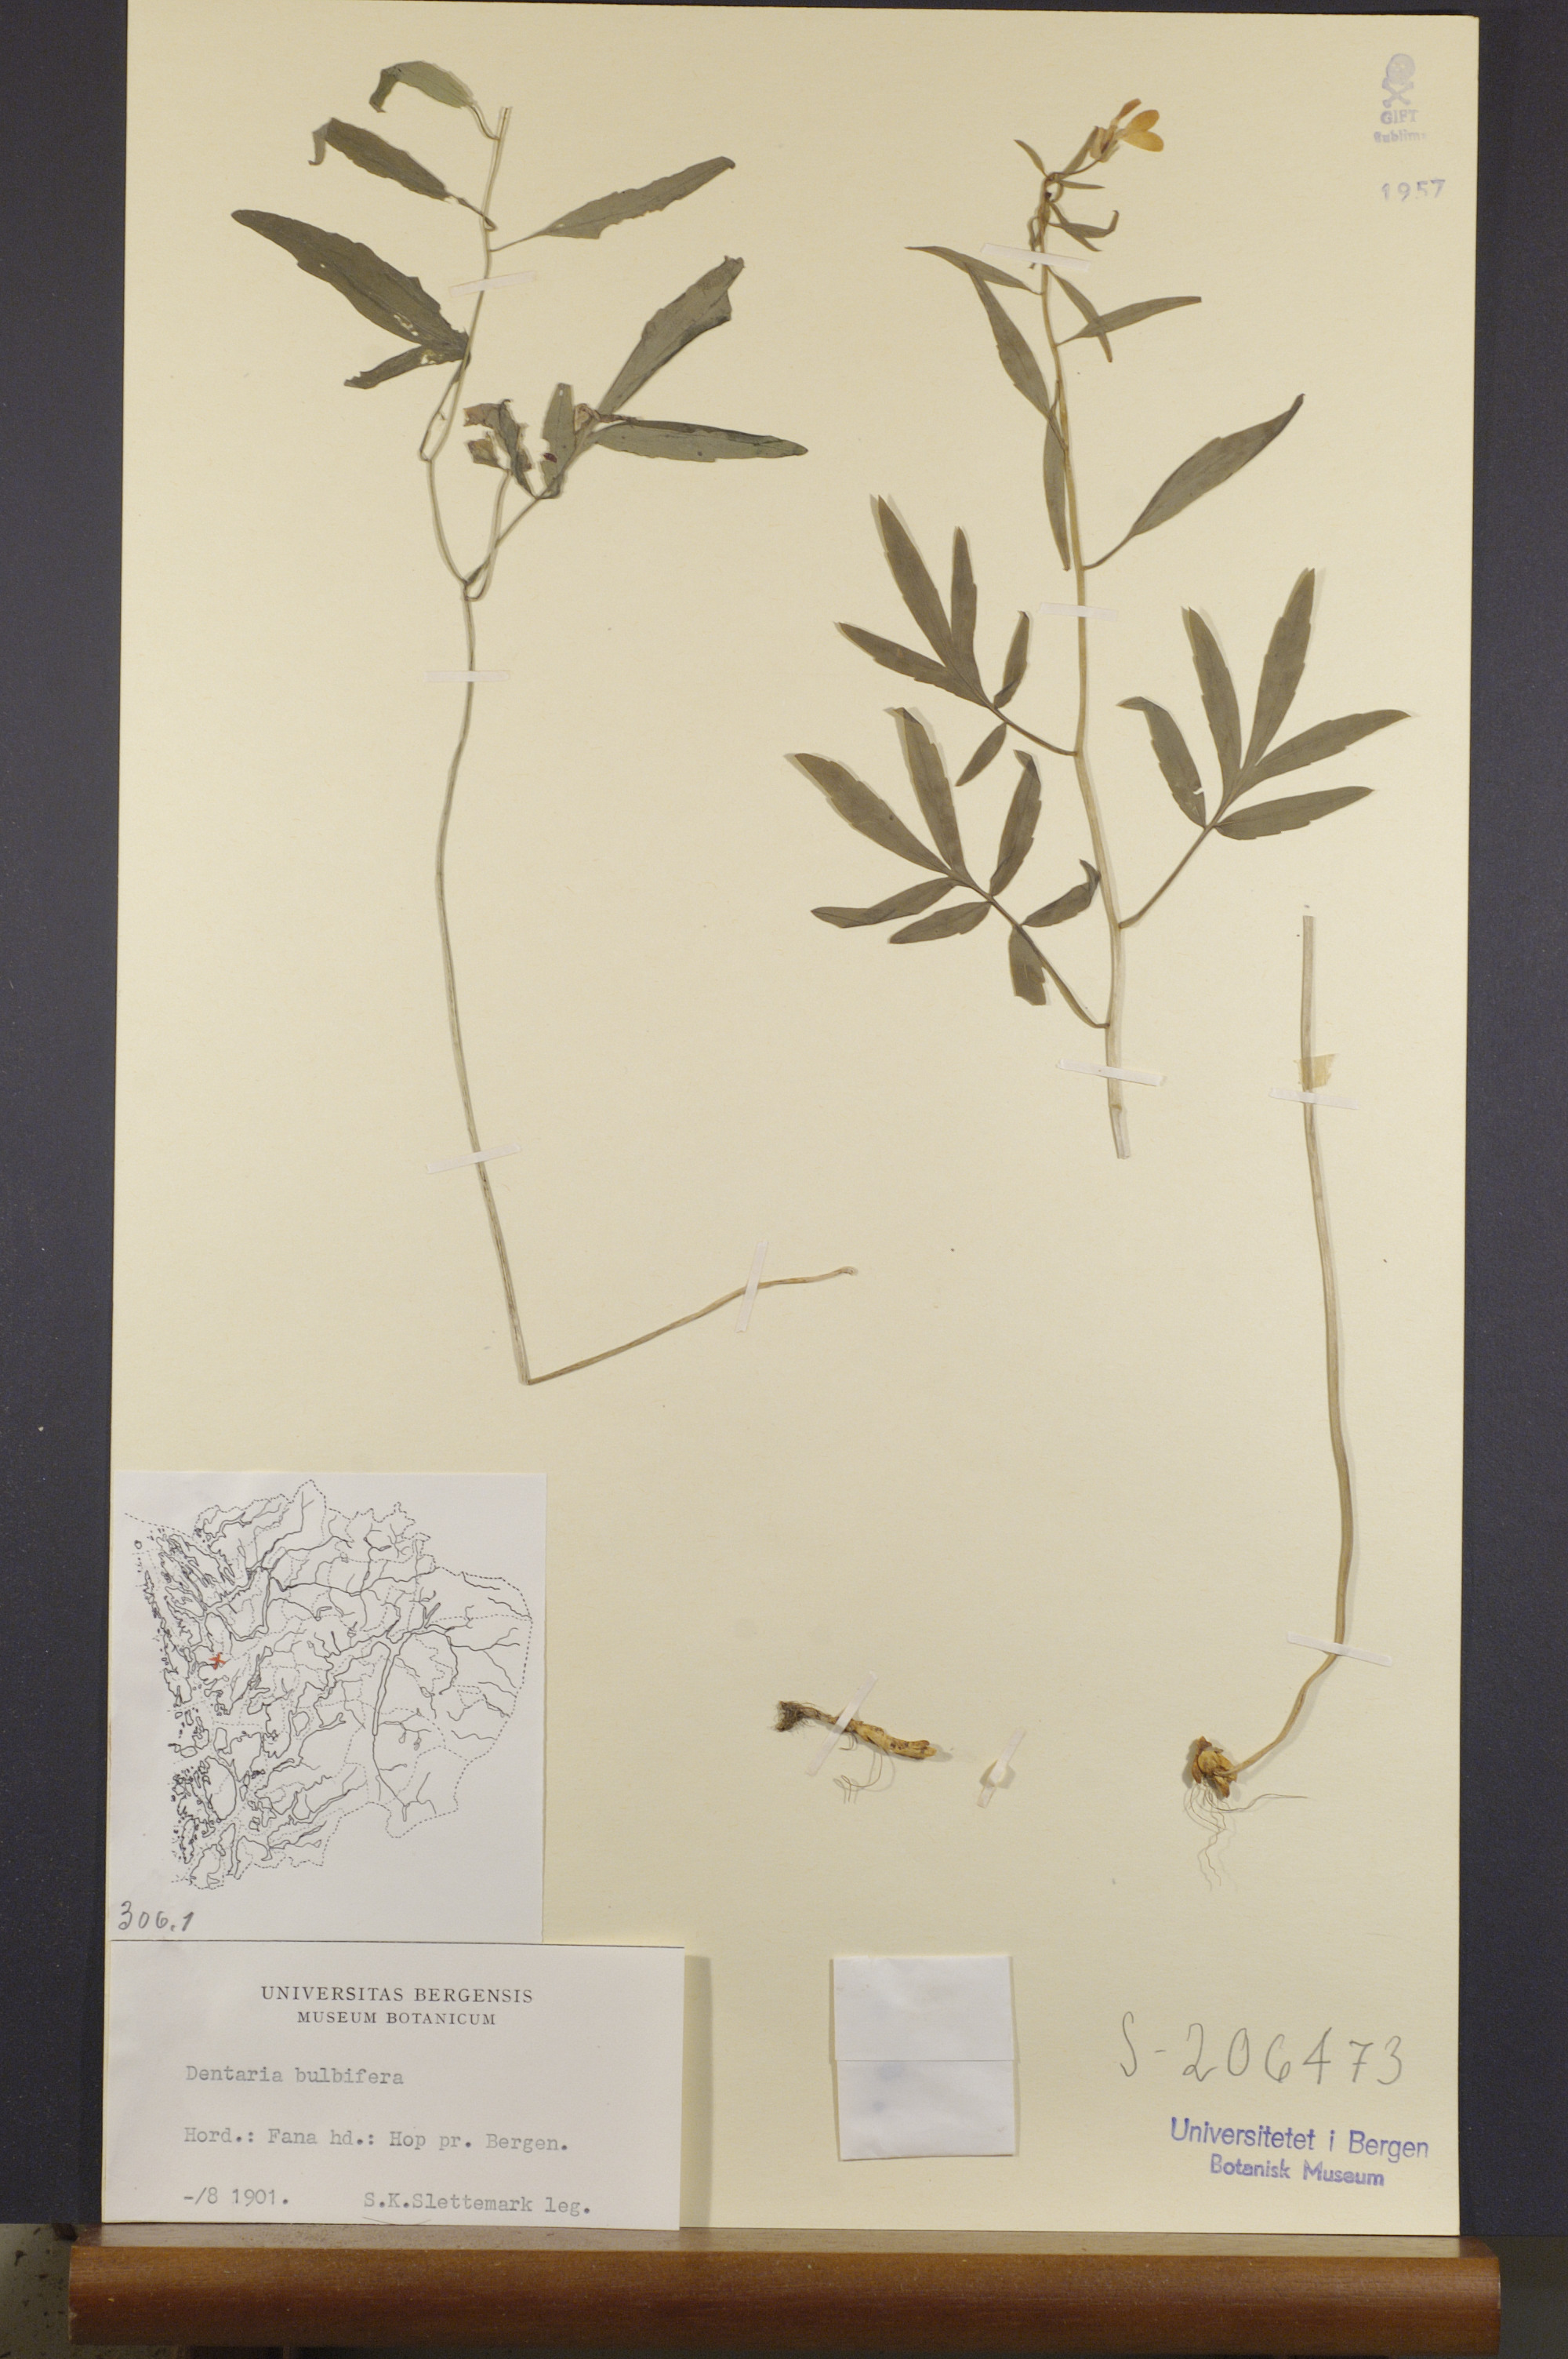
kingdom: Plantae
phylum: Tracheophyta
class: Magnoliopsida
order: Brassicales
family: Brassicaceae
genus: Cardamine
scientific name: Cardamine bulbifera
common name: Coralroot bittercress
